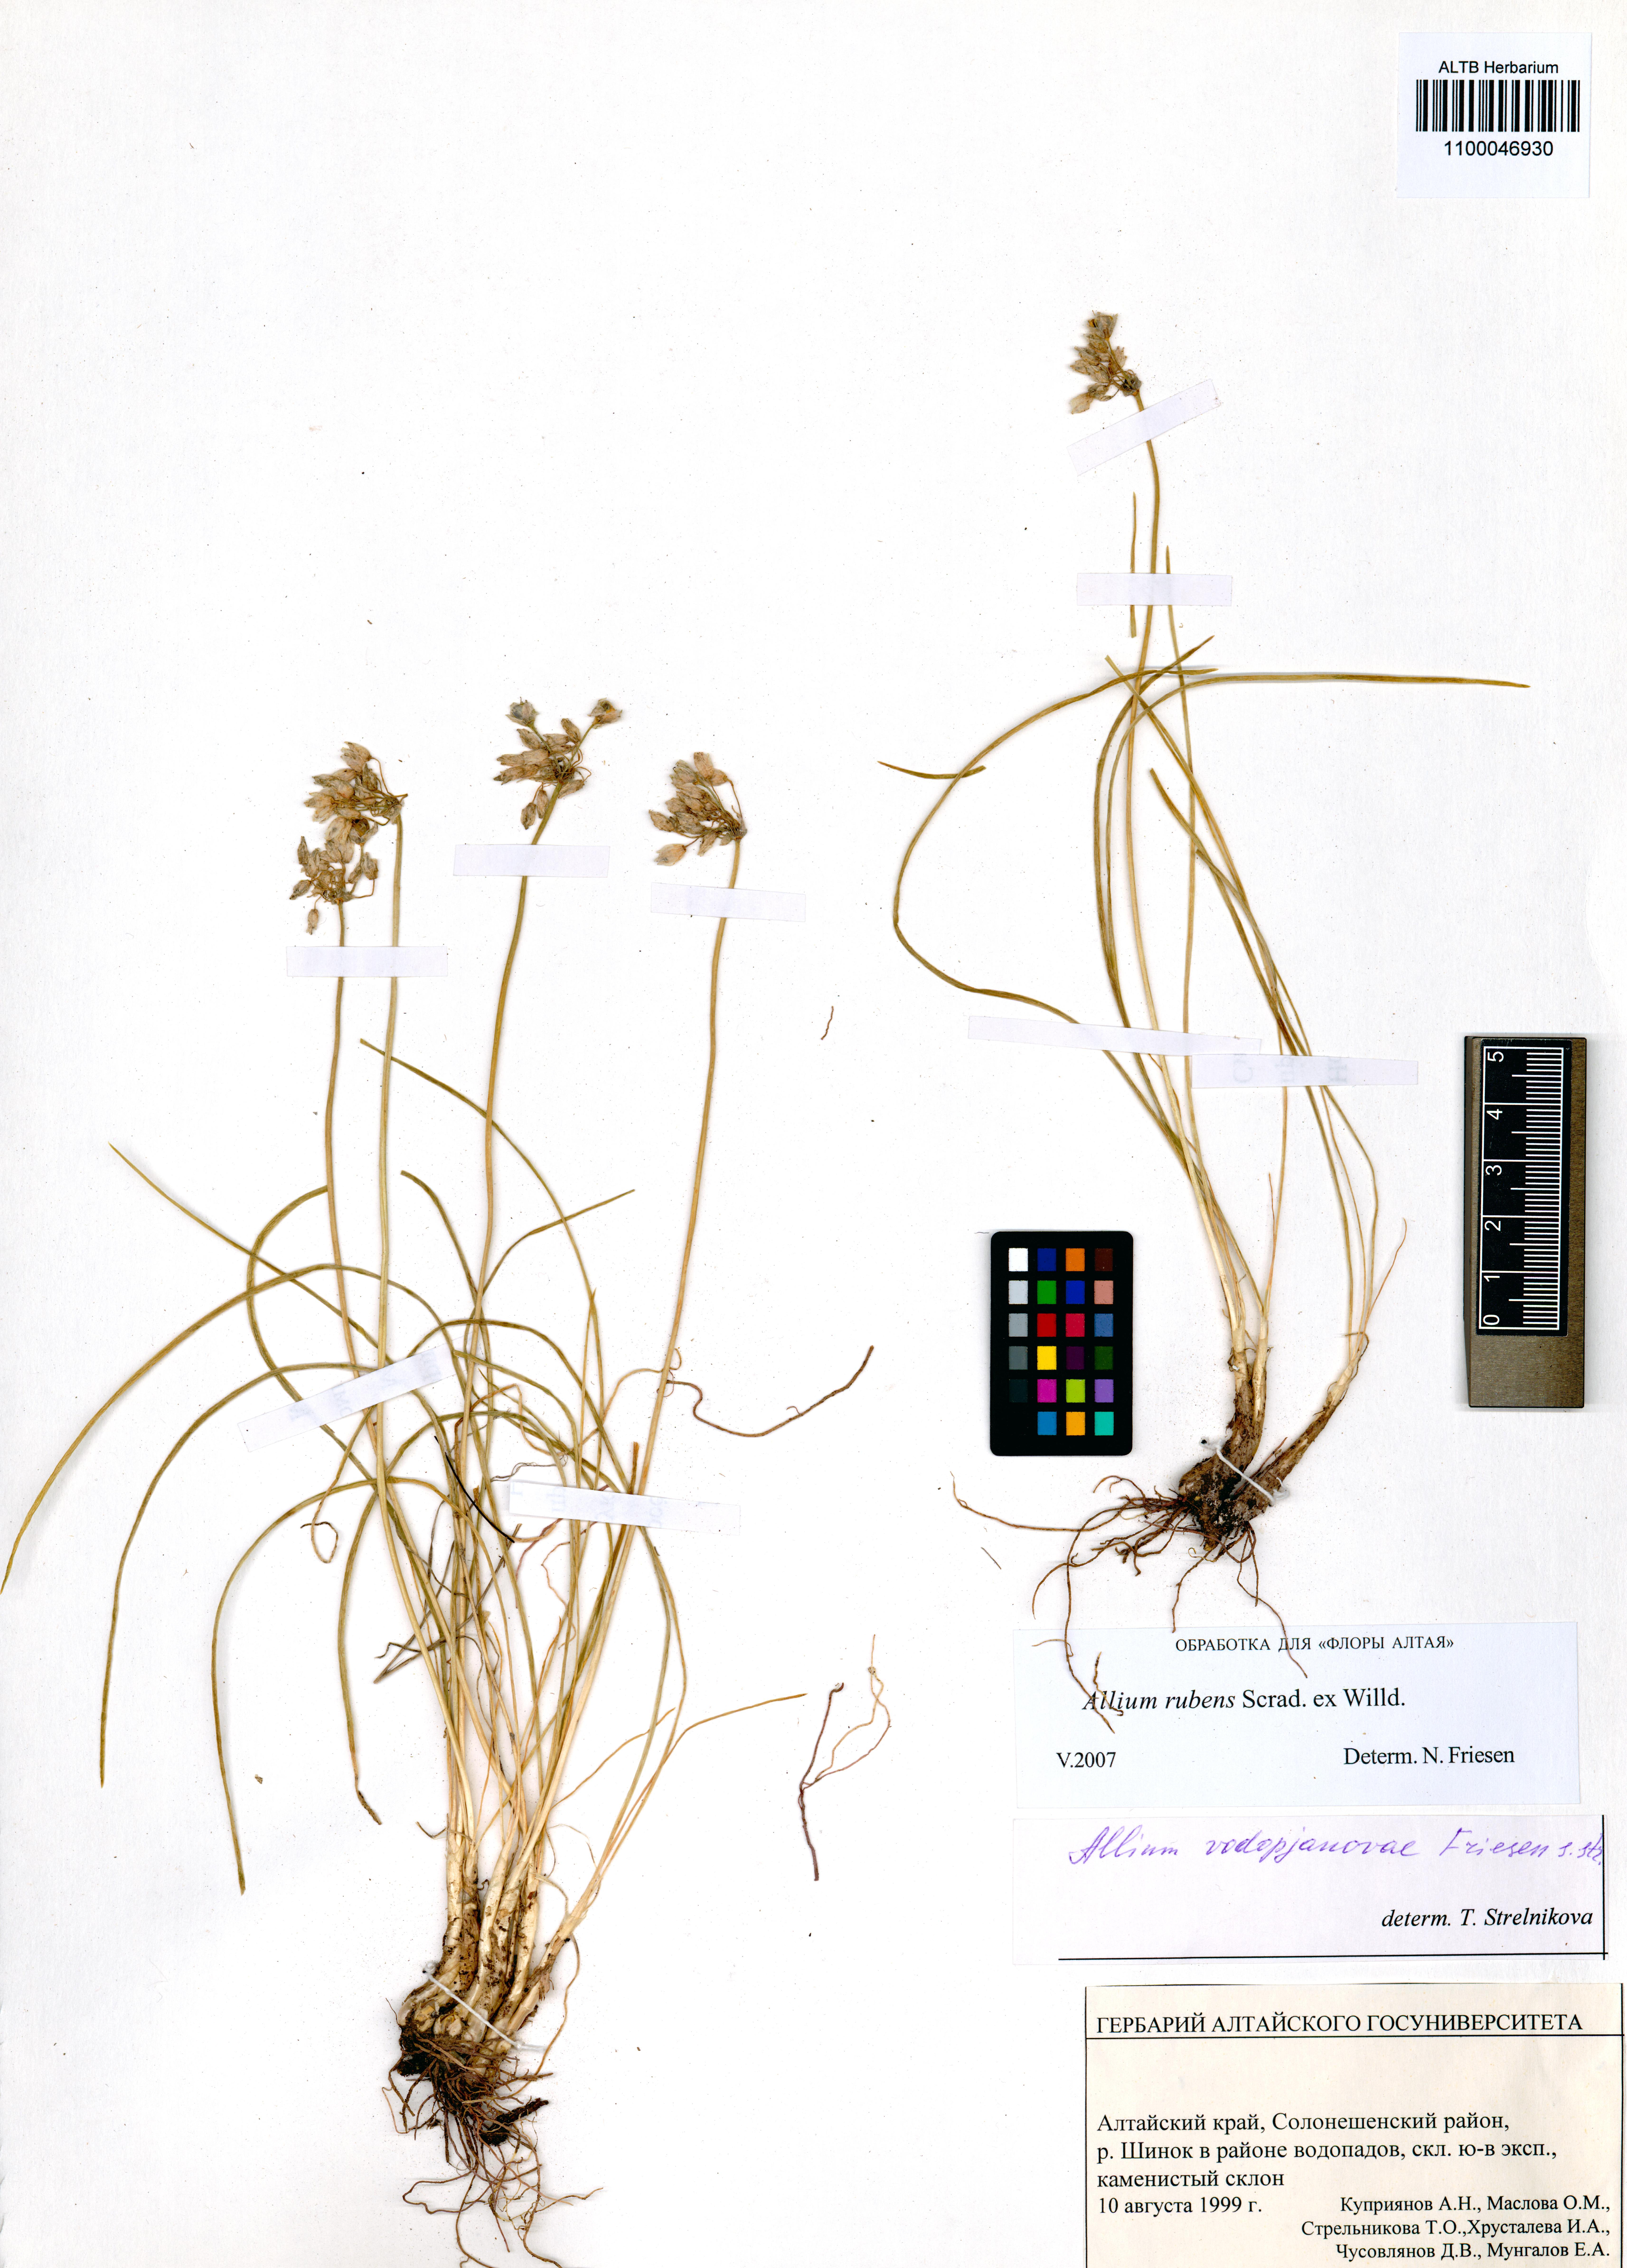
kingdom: Plantae
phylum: Tracheophyta
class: Liliopsida
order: Asparagales
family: Amaryllidaceae
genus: Allium
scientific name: Allium rubens
